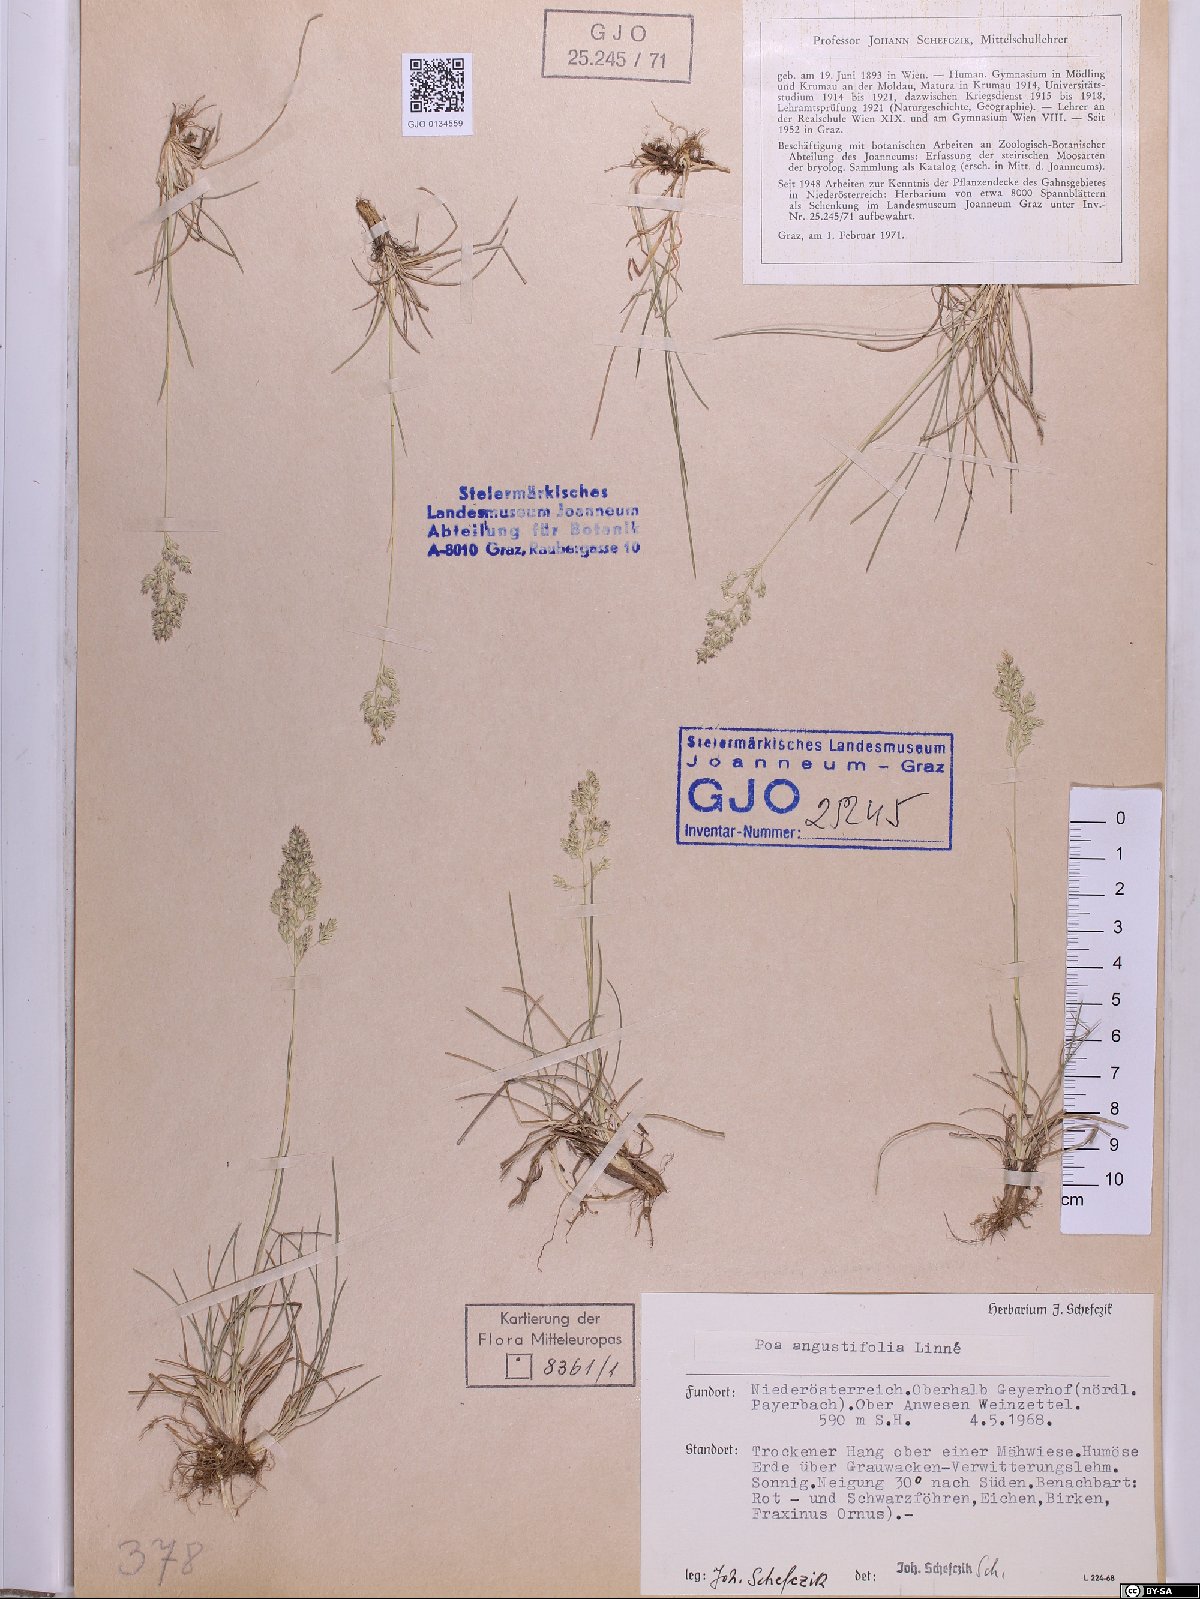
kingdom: Plantae
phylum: Tracheophyta
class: Liliopsida
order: Poales
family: Poaceae
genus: Poa
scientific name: Poa angustifolia
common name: Narrow-leaved meadow-grass
